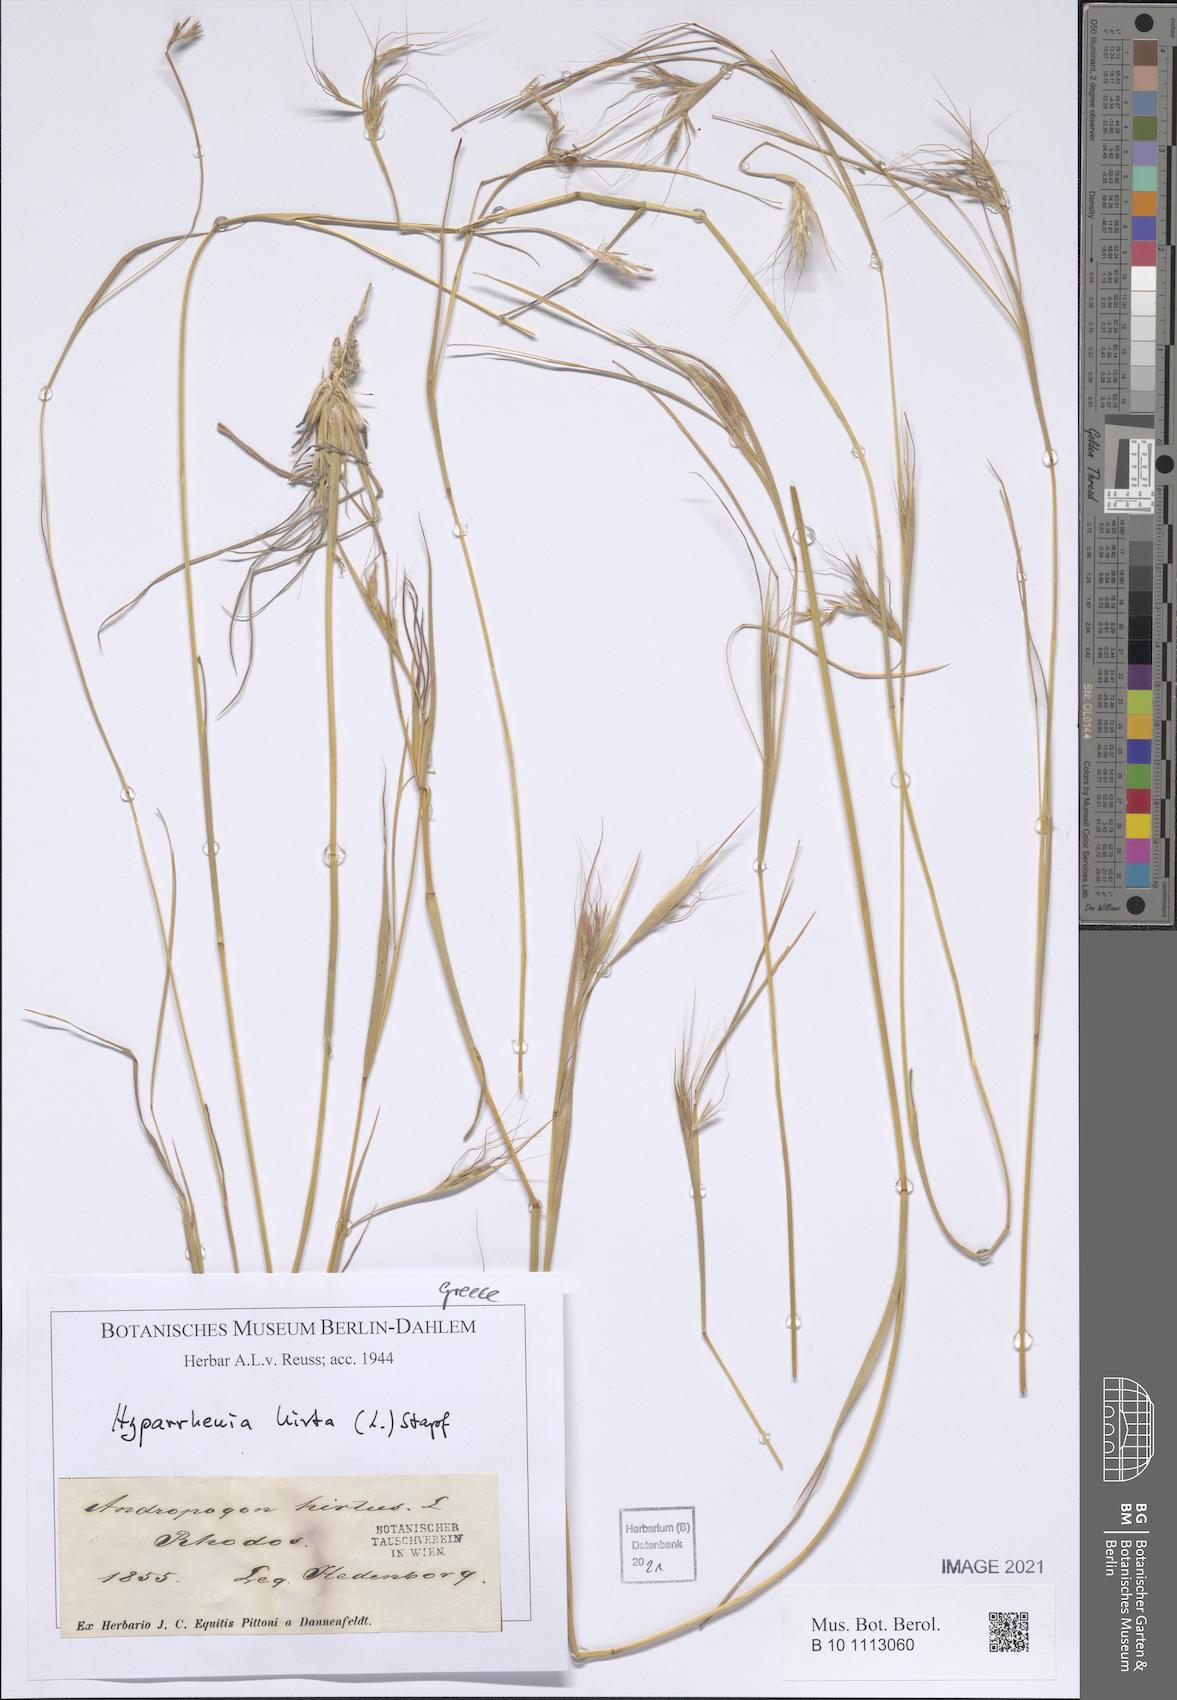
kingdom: Plantae
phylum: Tracheophyta
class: Liliopsida
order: Poales
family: Poaceae
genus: Hyparrhenia
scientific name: Hyparrhenia hirta
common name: Thatching grass
